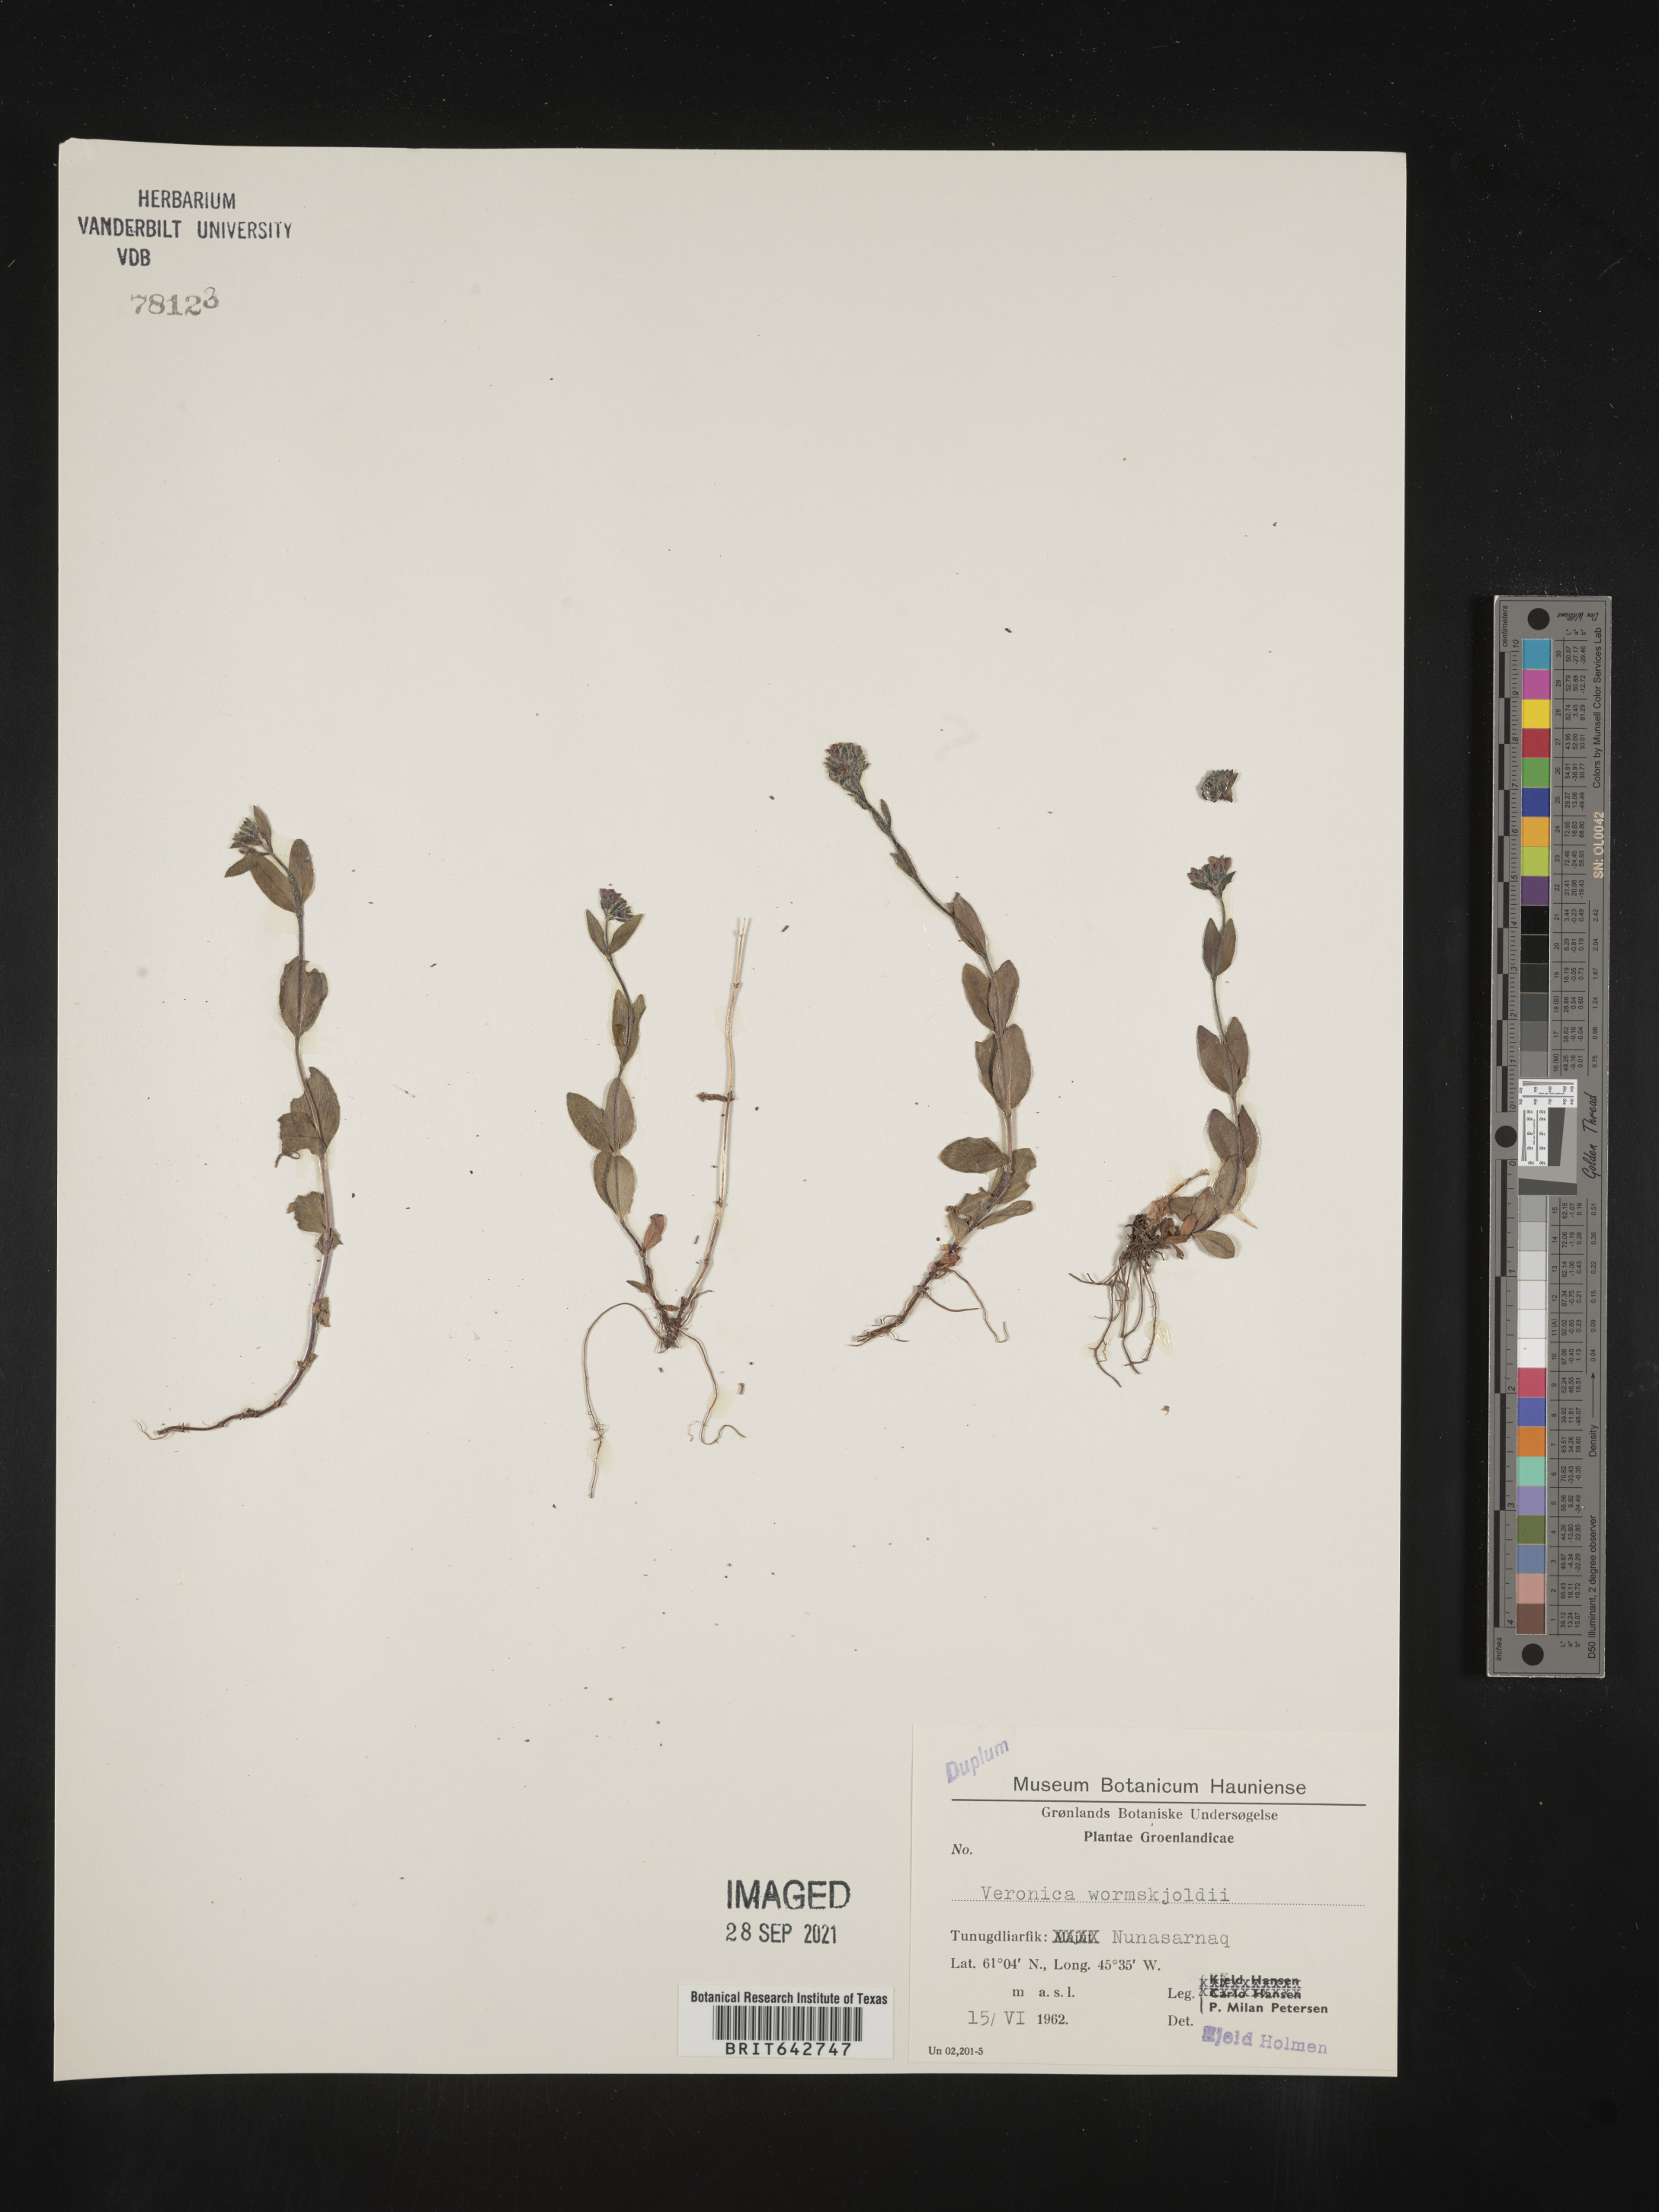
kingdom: Plantae
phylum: Tracheophyta
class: Magnoliopsida
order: Lamiales
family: Plantaginaceae
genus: Veronica
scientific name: Veronica
